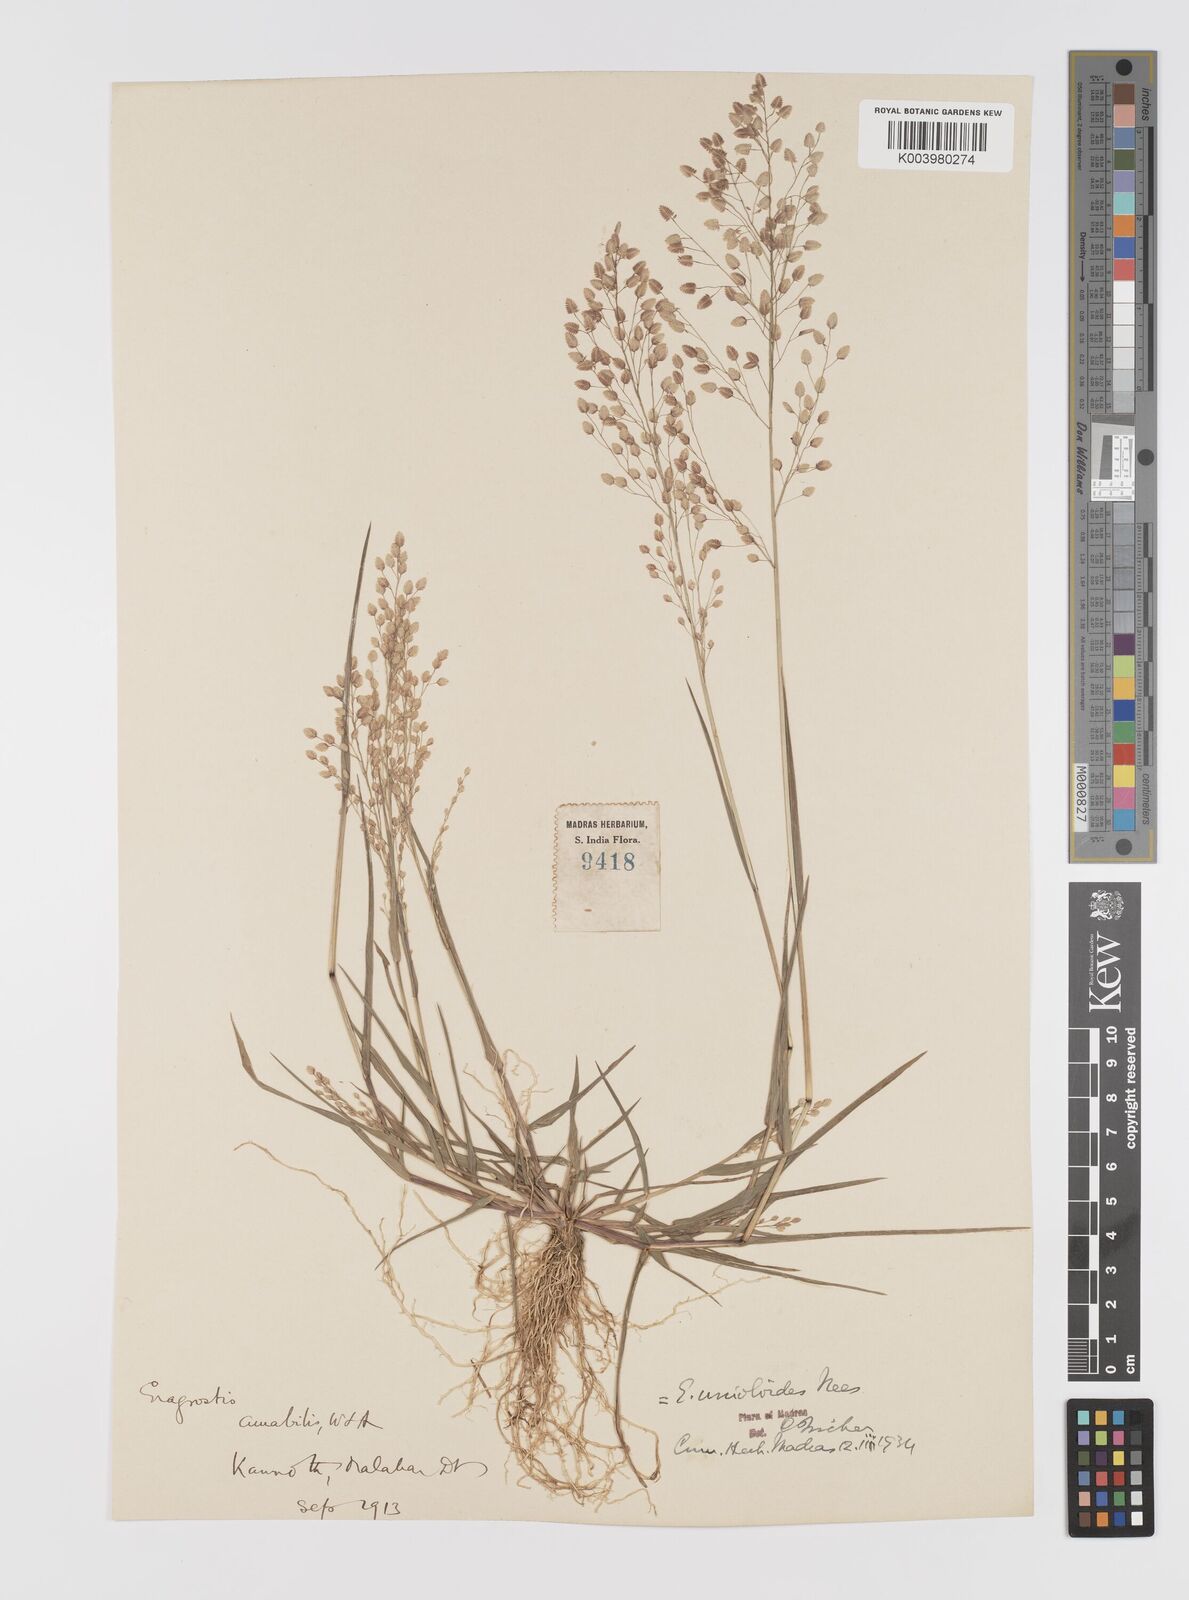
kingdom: Plantae
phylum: Tracheophyta
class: Liliopsida
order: Poales
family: Poaceae
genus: Eragrostis
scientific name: Eragrostis unioloides
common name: Chinese lovegrass
